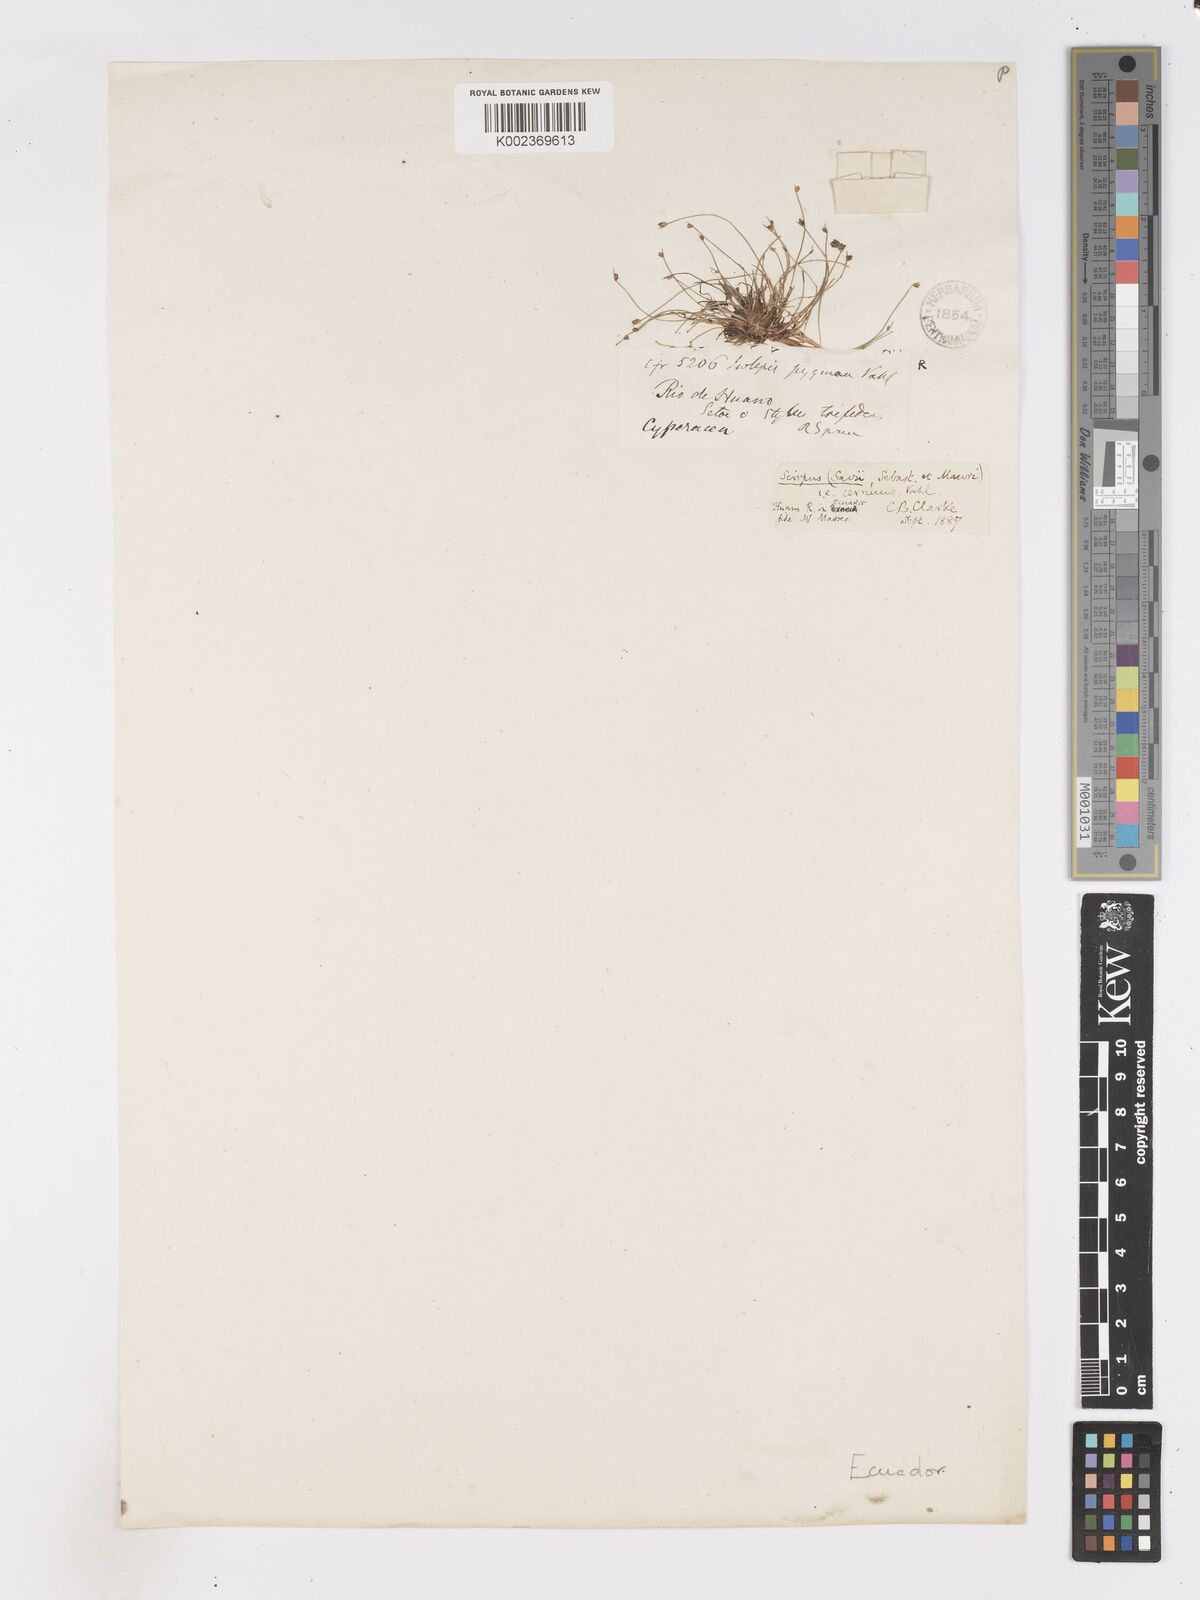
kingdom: Plantae
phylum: Tracheophyta
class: Liliopsida
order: Poales
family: Cyperaceae
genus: Isolepis
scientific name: Isolepis cernua
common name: Slender club-rush
